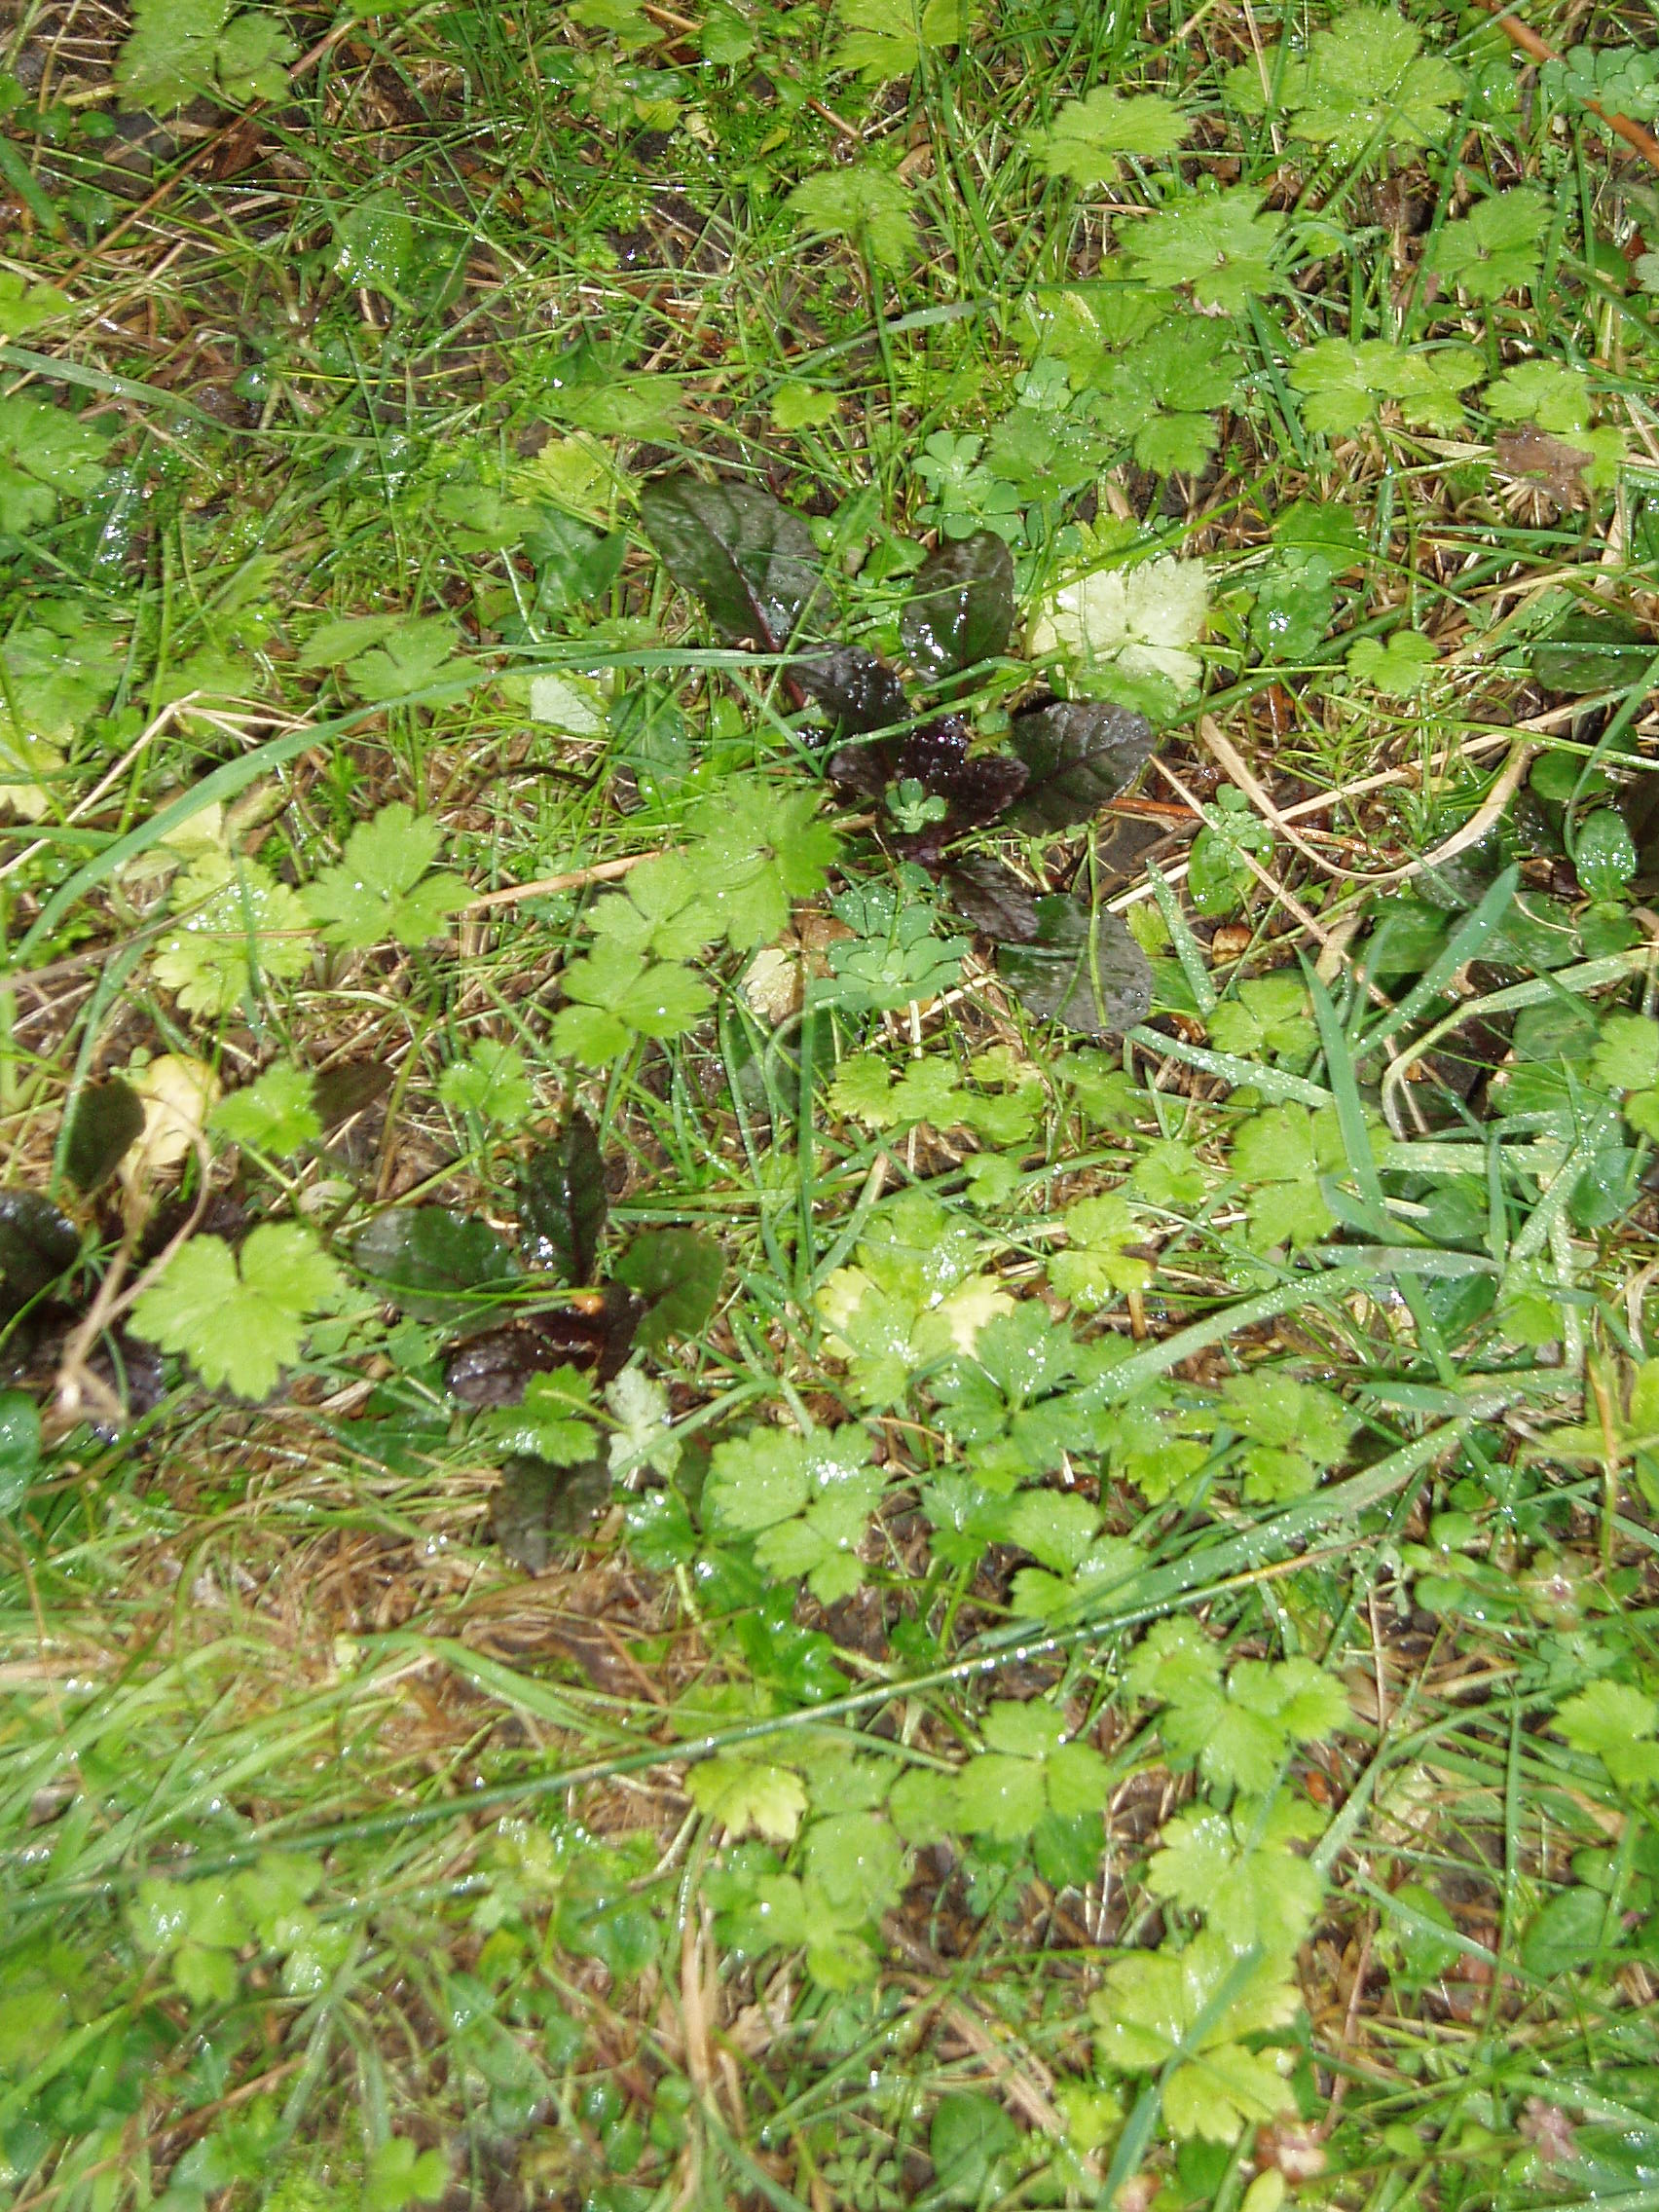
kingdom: Plantae
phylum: Tracheophyta
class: Magnoliopsida
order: Lamiales
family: Lamiaceae
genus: Ajuga
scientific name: Ajuga reptans
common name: Bugle
